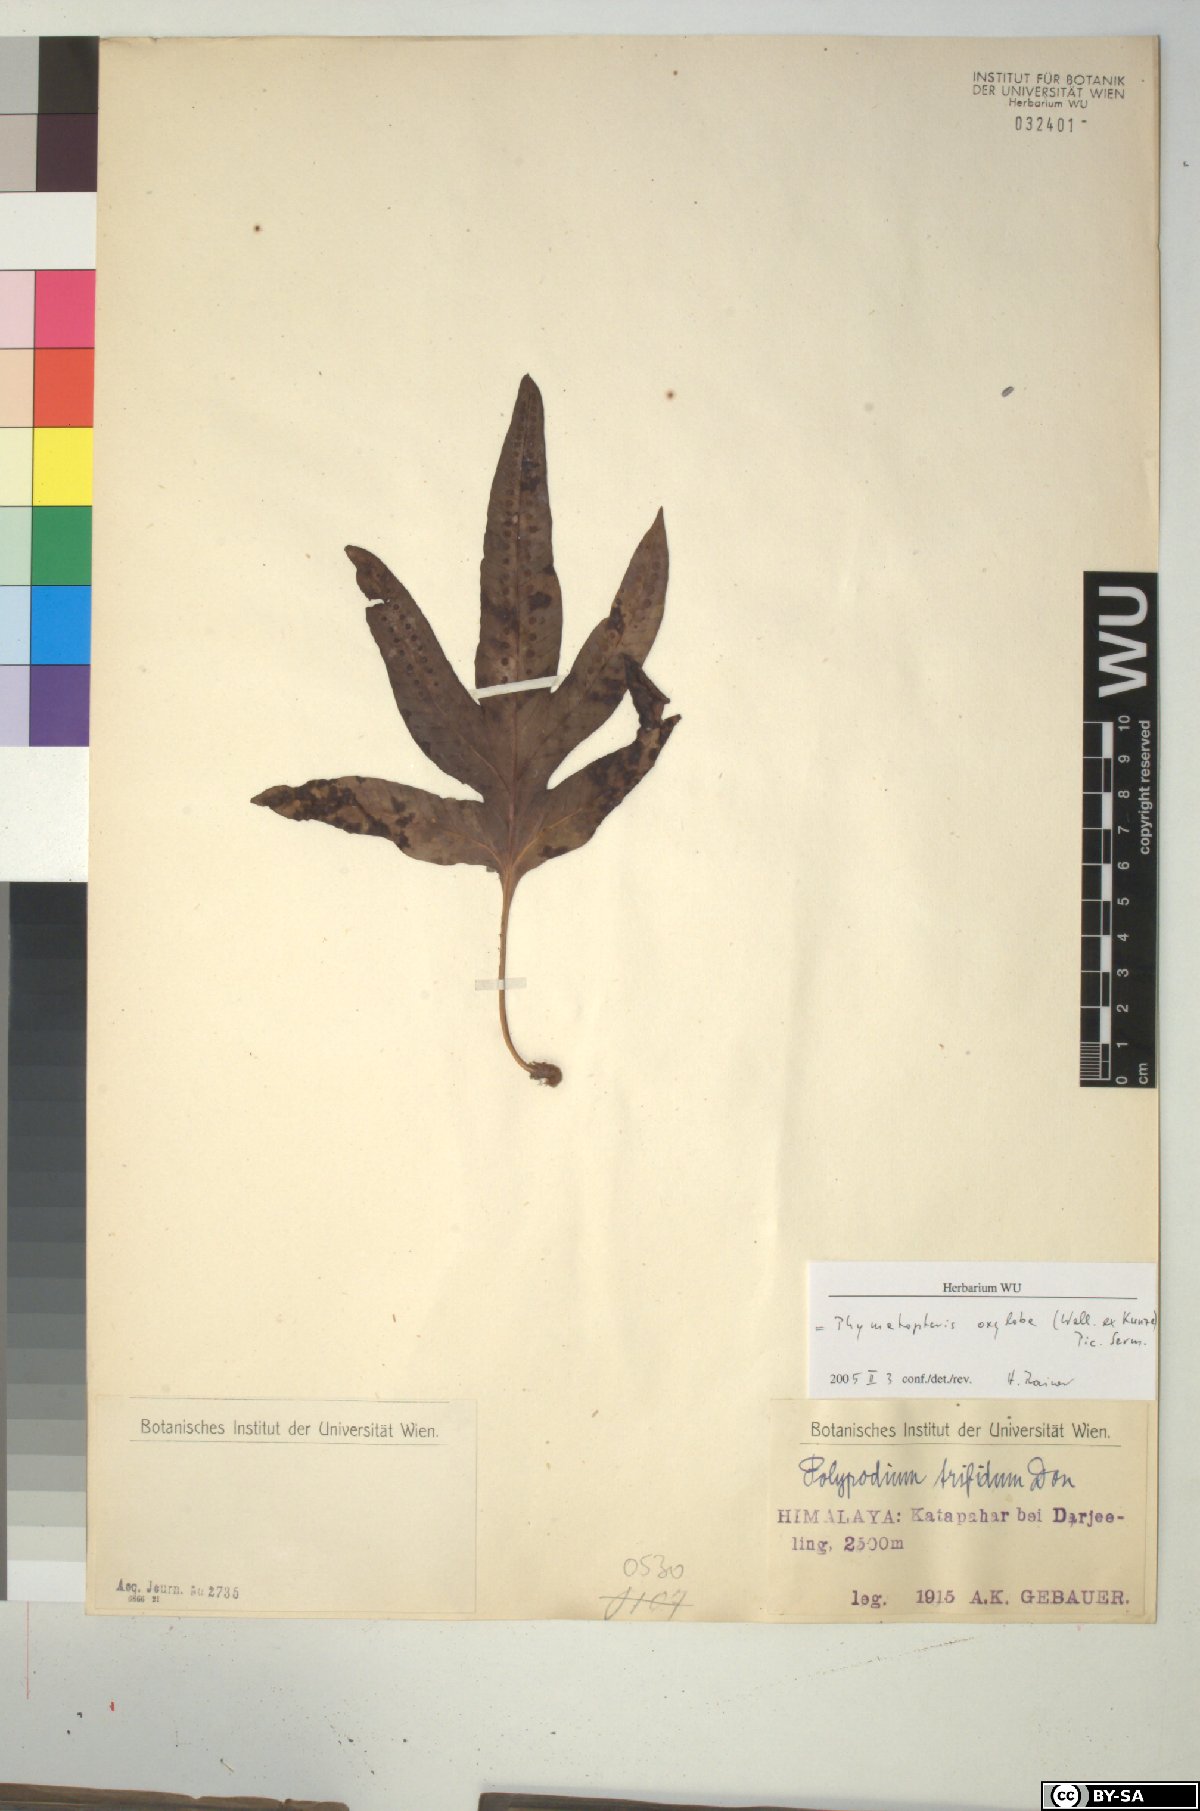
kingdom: Plantae
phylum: Tracheophyta
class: Polypodiopsida
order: Polypodiales
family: Polypodiaceae
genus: Selliguea
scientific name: Selliguea oxyloba
